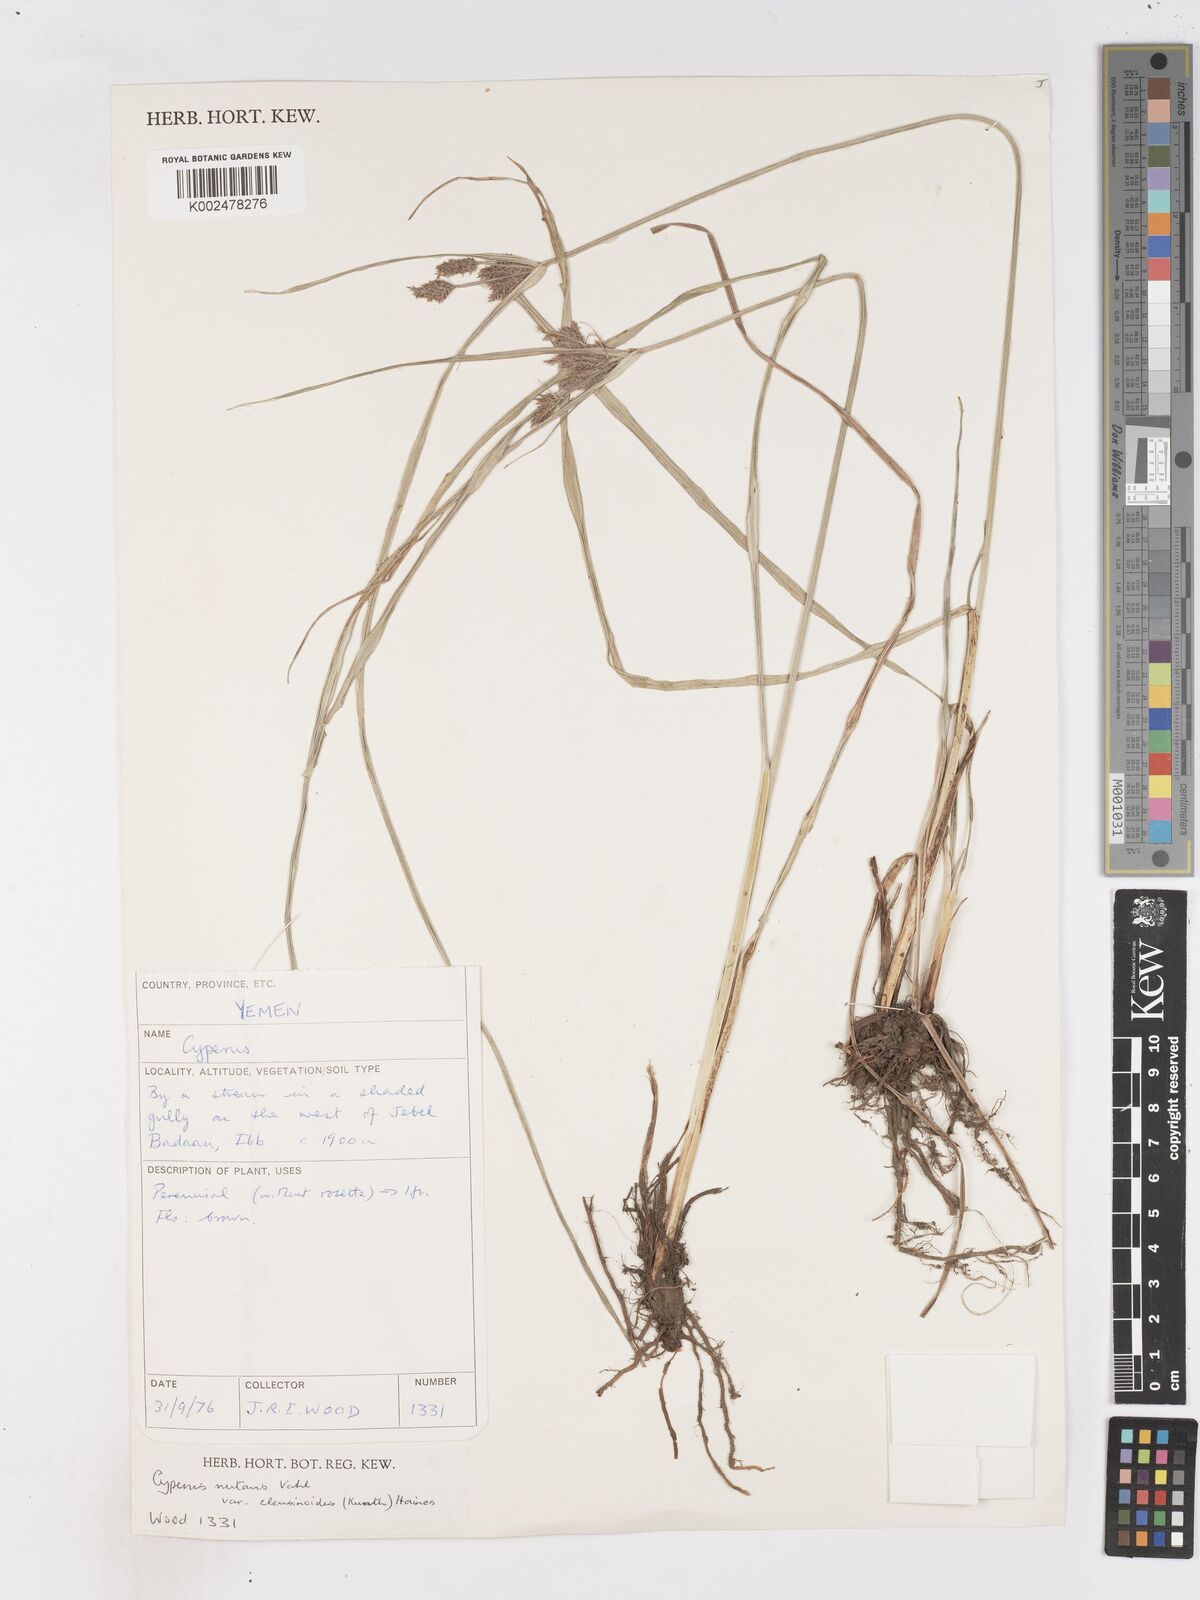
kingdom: Plantae
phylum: Tracheophyta
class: Liliopsida
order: Poales
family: Cyperaceae
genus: Cyperus
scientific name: Cyperus nutans
